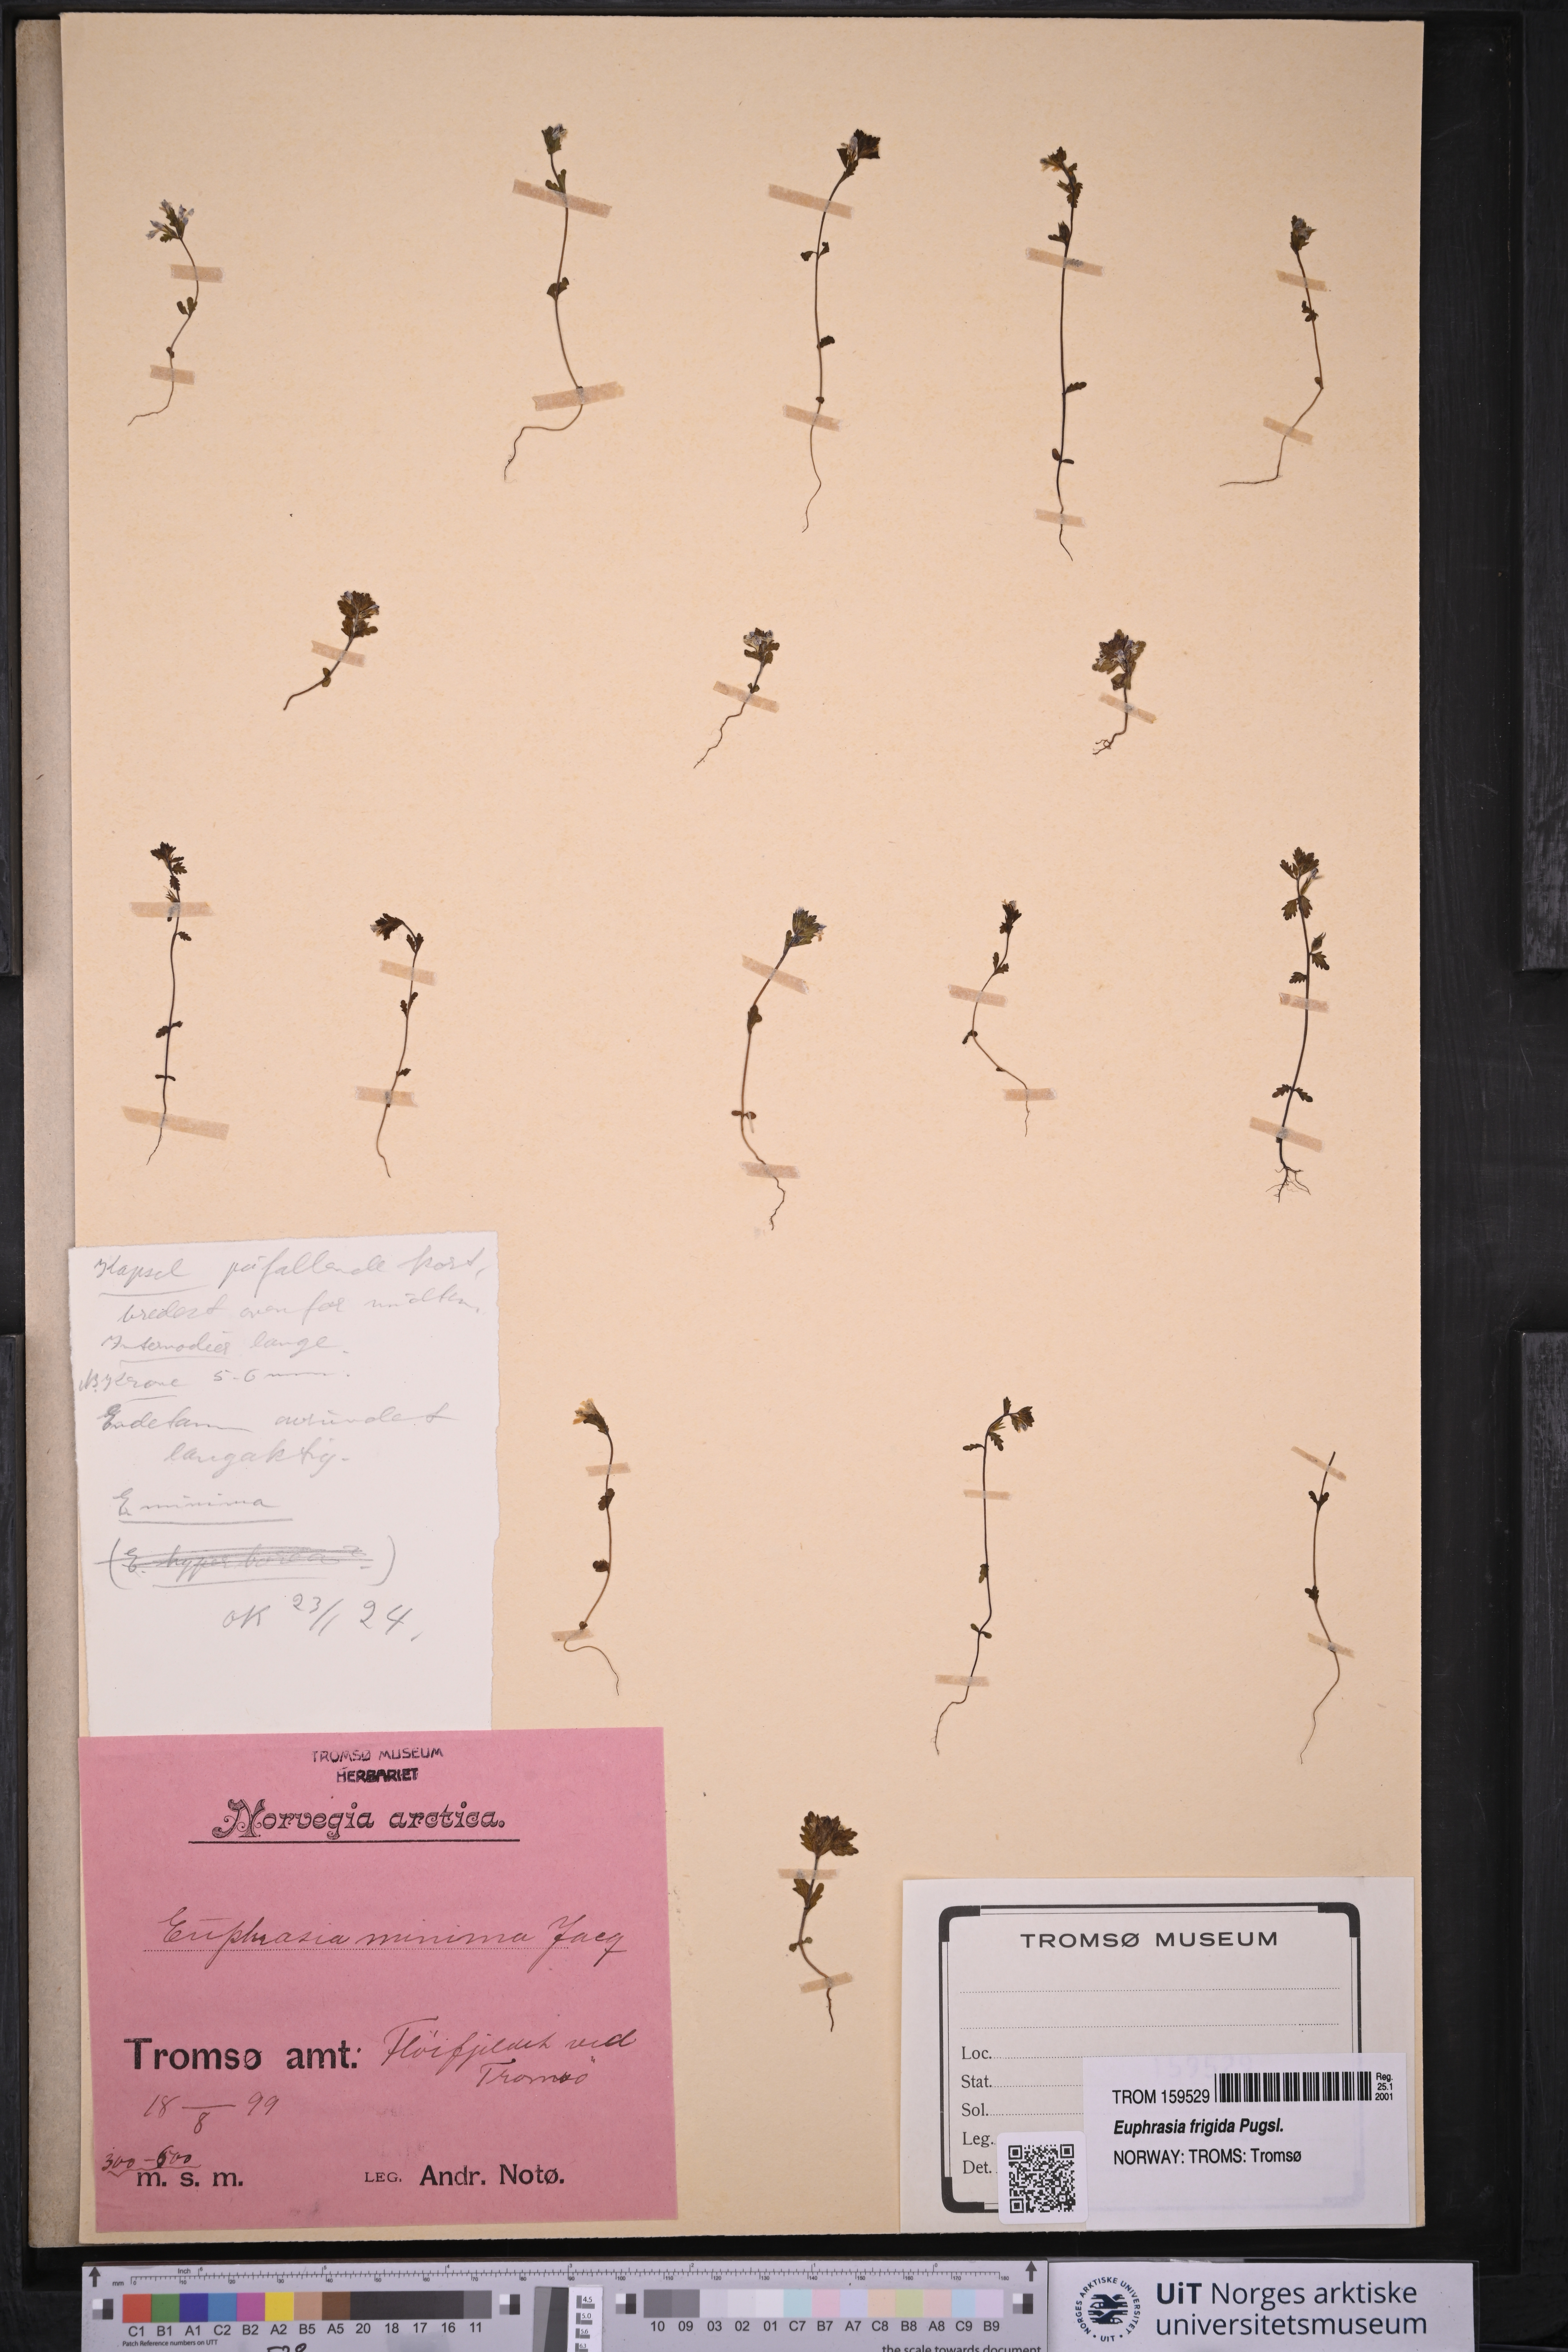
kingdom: Plantae
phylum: Tracheophyta
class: Magnoliopsida
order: Lamiales
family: Orobanchaceae
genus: Euphrasia
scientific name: Euphrasia wettsteinii
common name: Wettstein's eyebright
